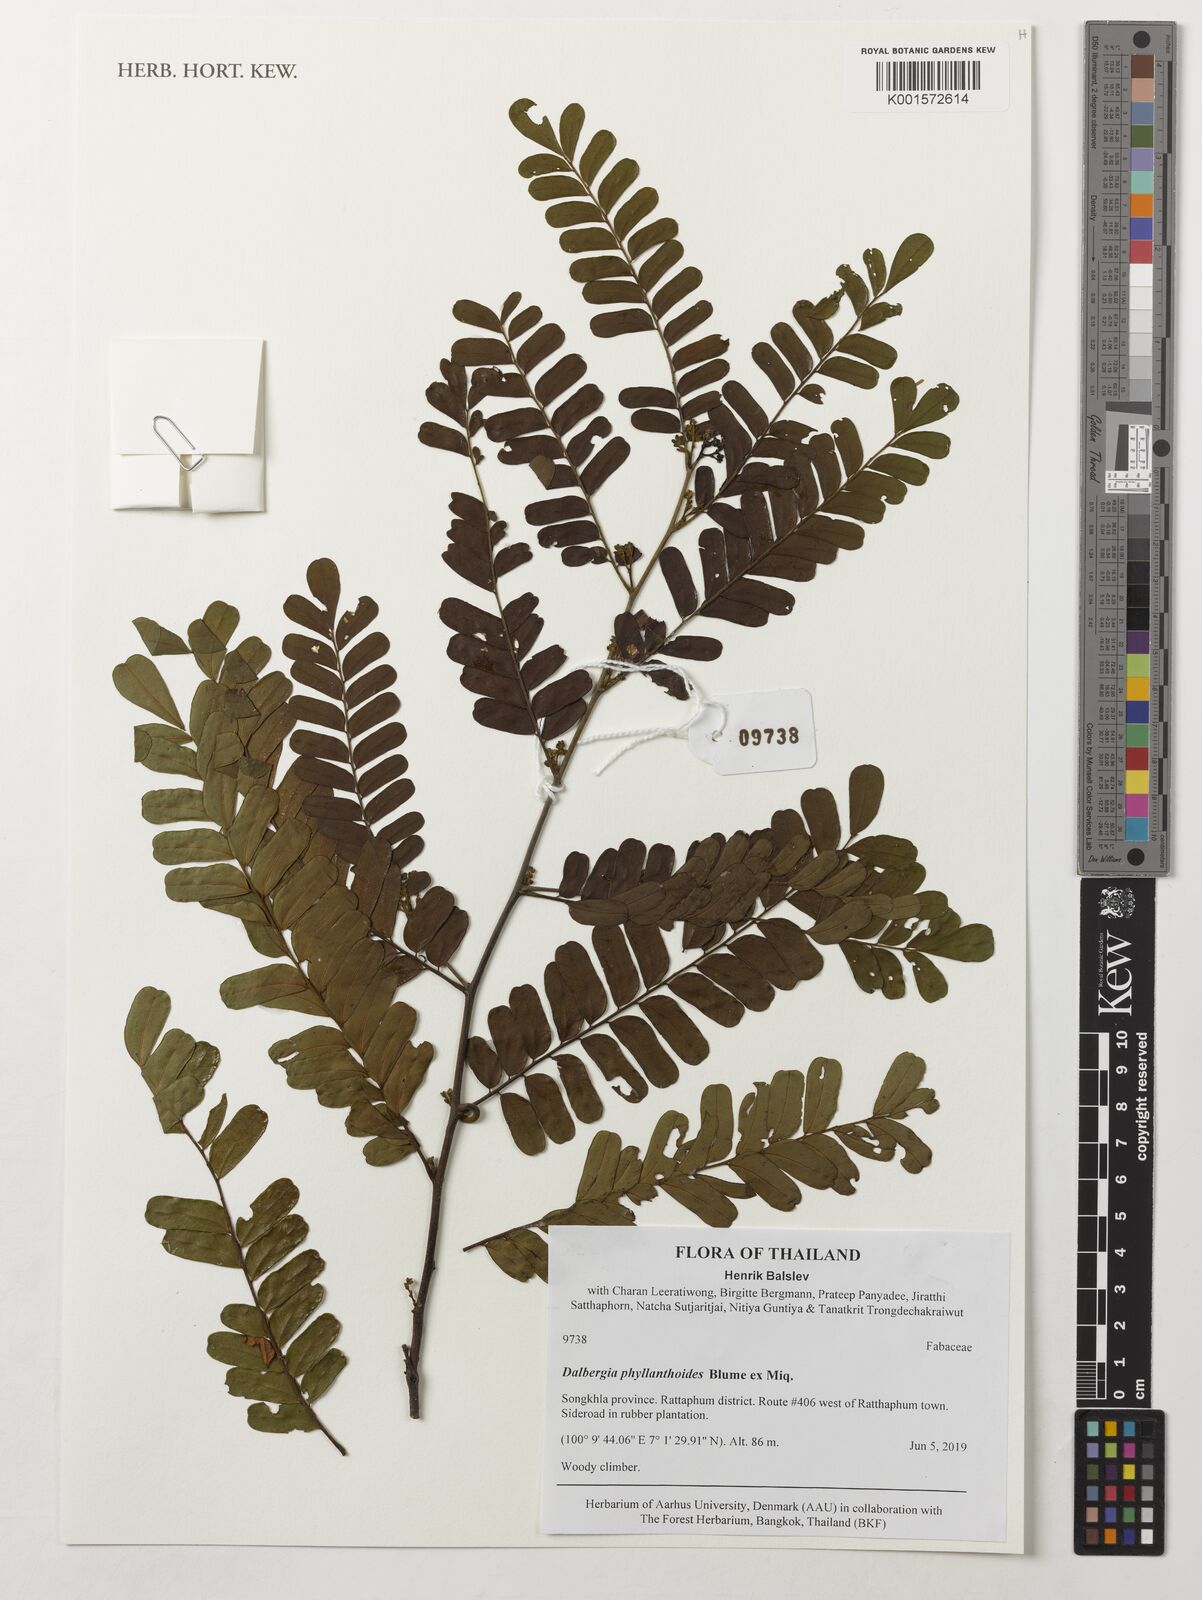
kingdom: Plantae
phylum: Tracheophyta
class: Magnoliopsida
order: Fabales
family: Fabaceae
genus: Dalbergia
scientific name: Dalbergia junghuhnii
